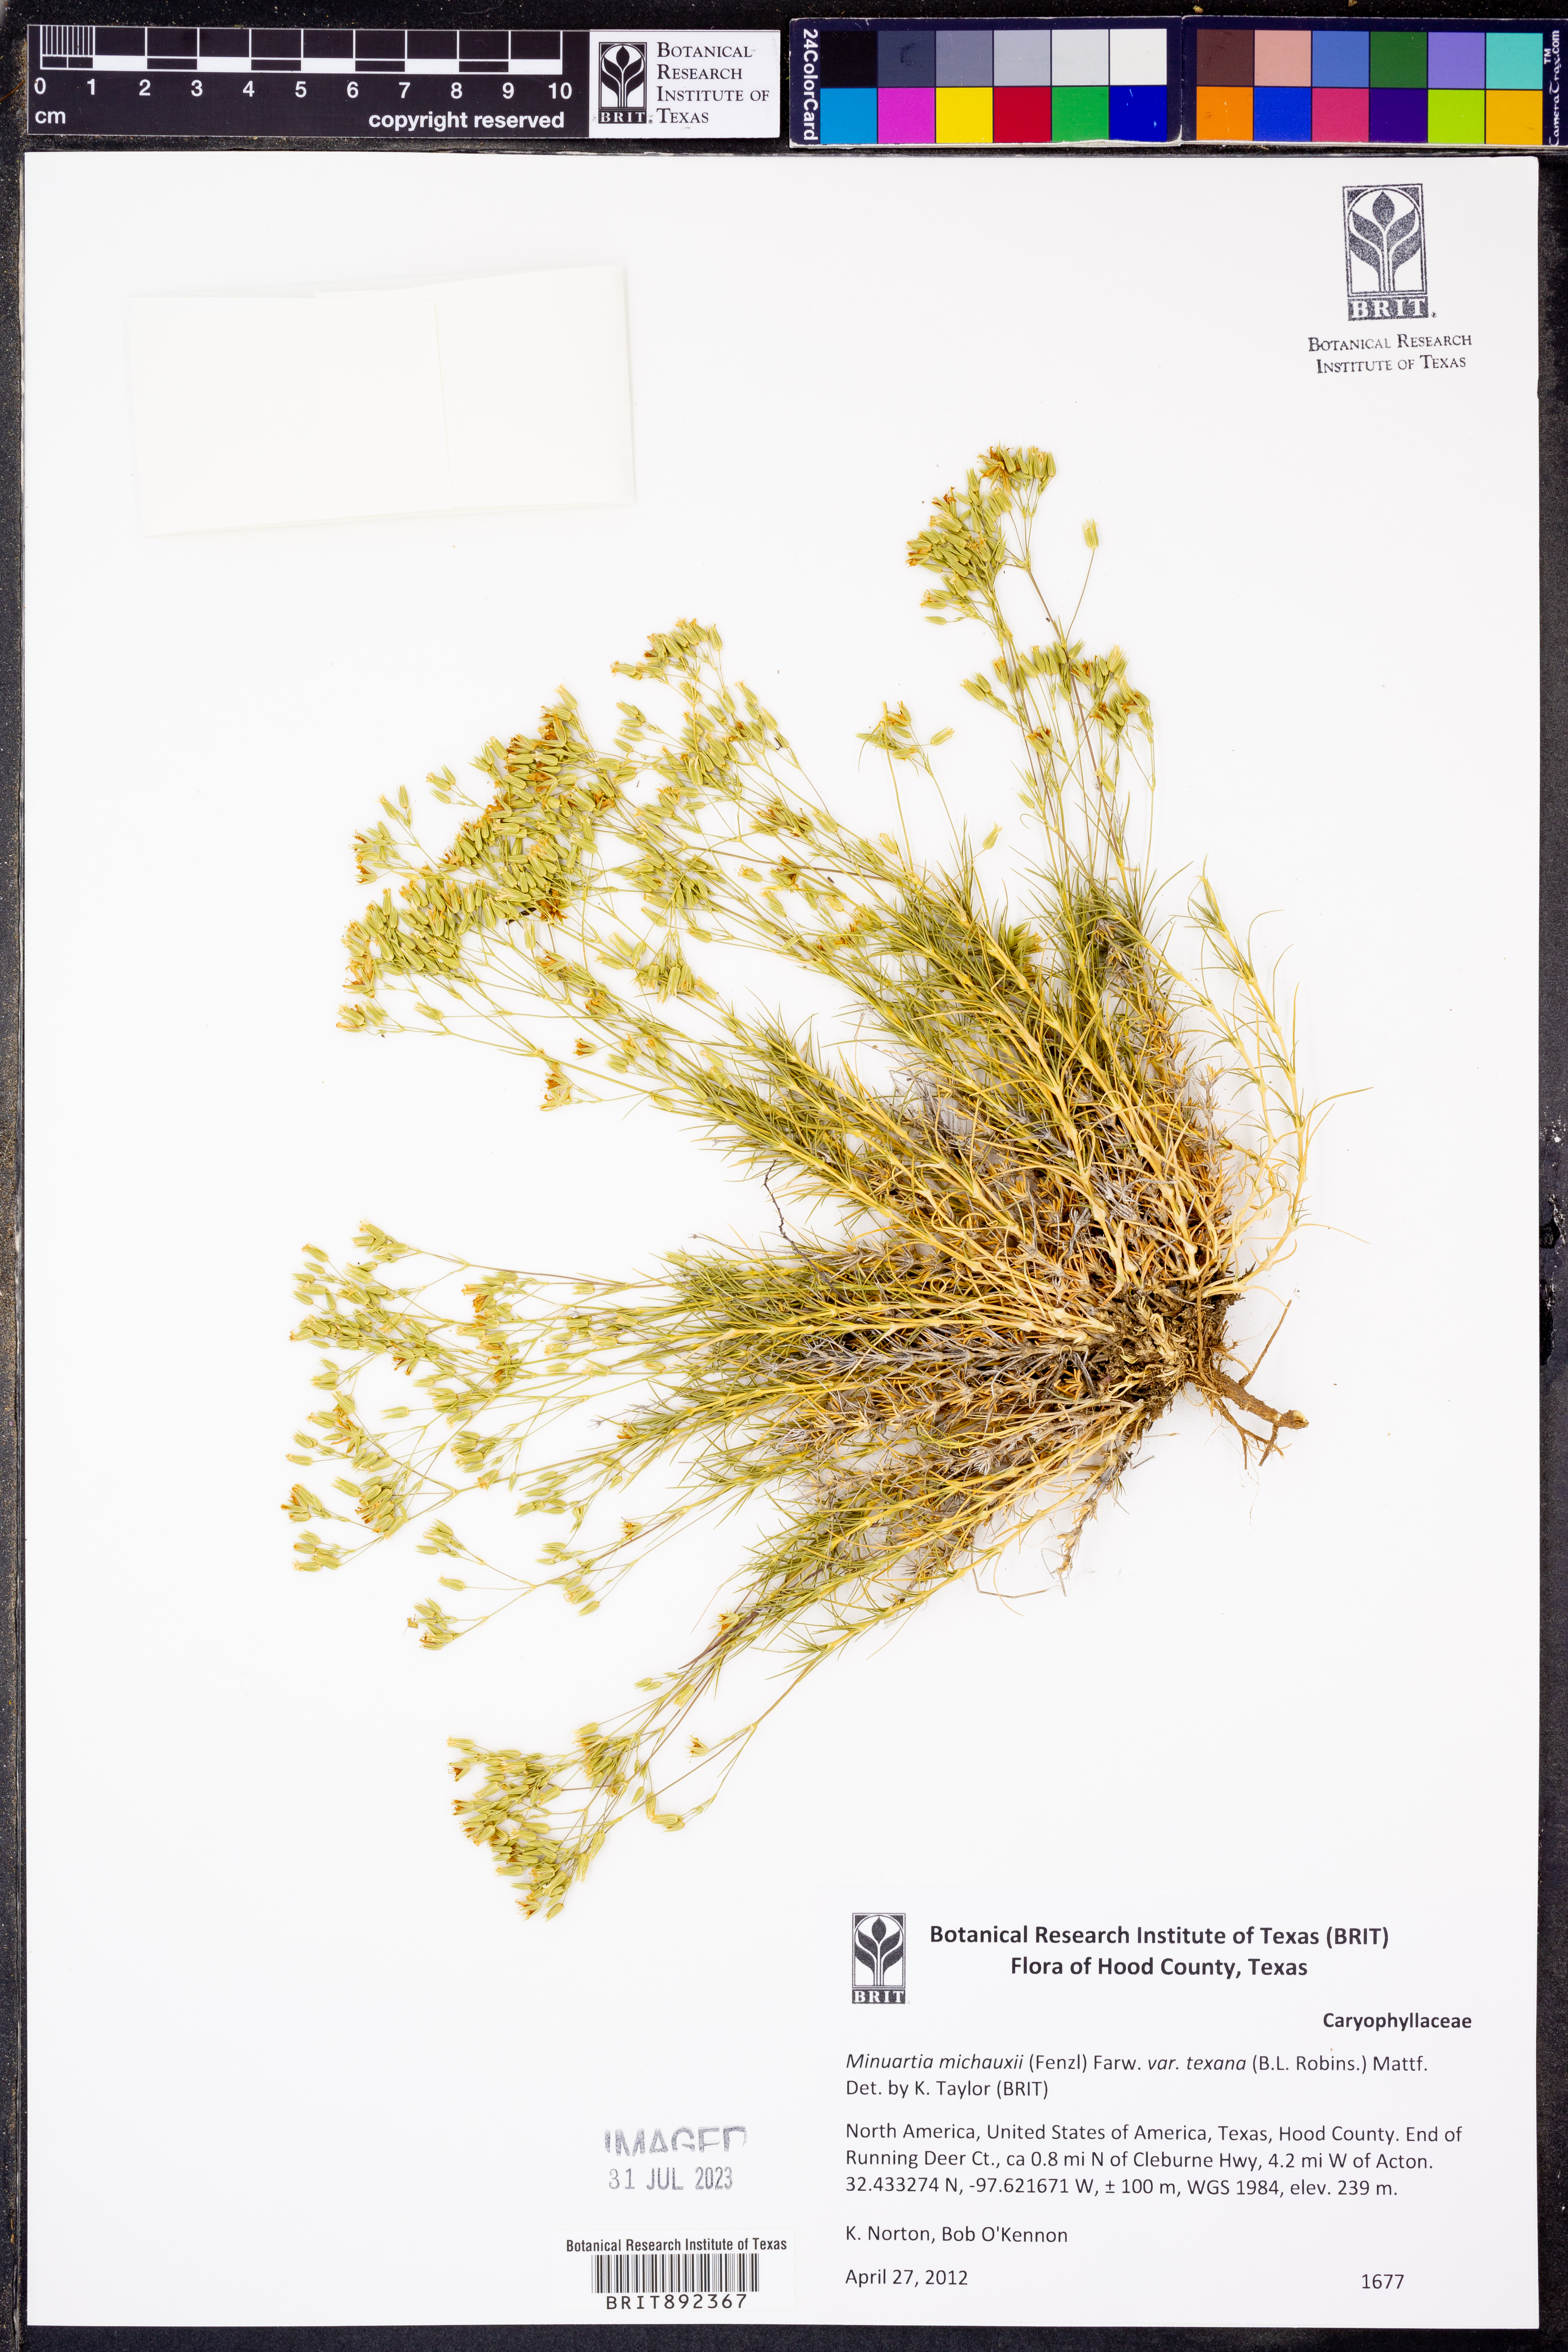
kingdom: Plantae
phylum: Tracheophyta
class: Magnoliopsida
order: Caryophyllales
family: Caryophyllaceae
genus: Sabulina
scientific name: Sabulina michauxii
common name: Michaux's stitchwort
